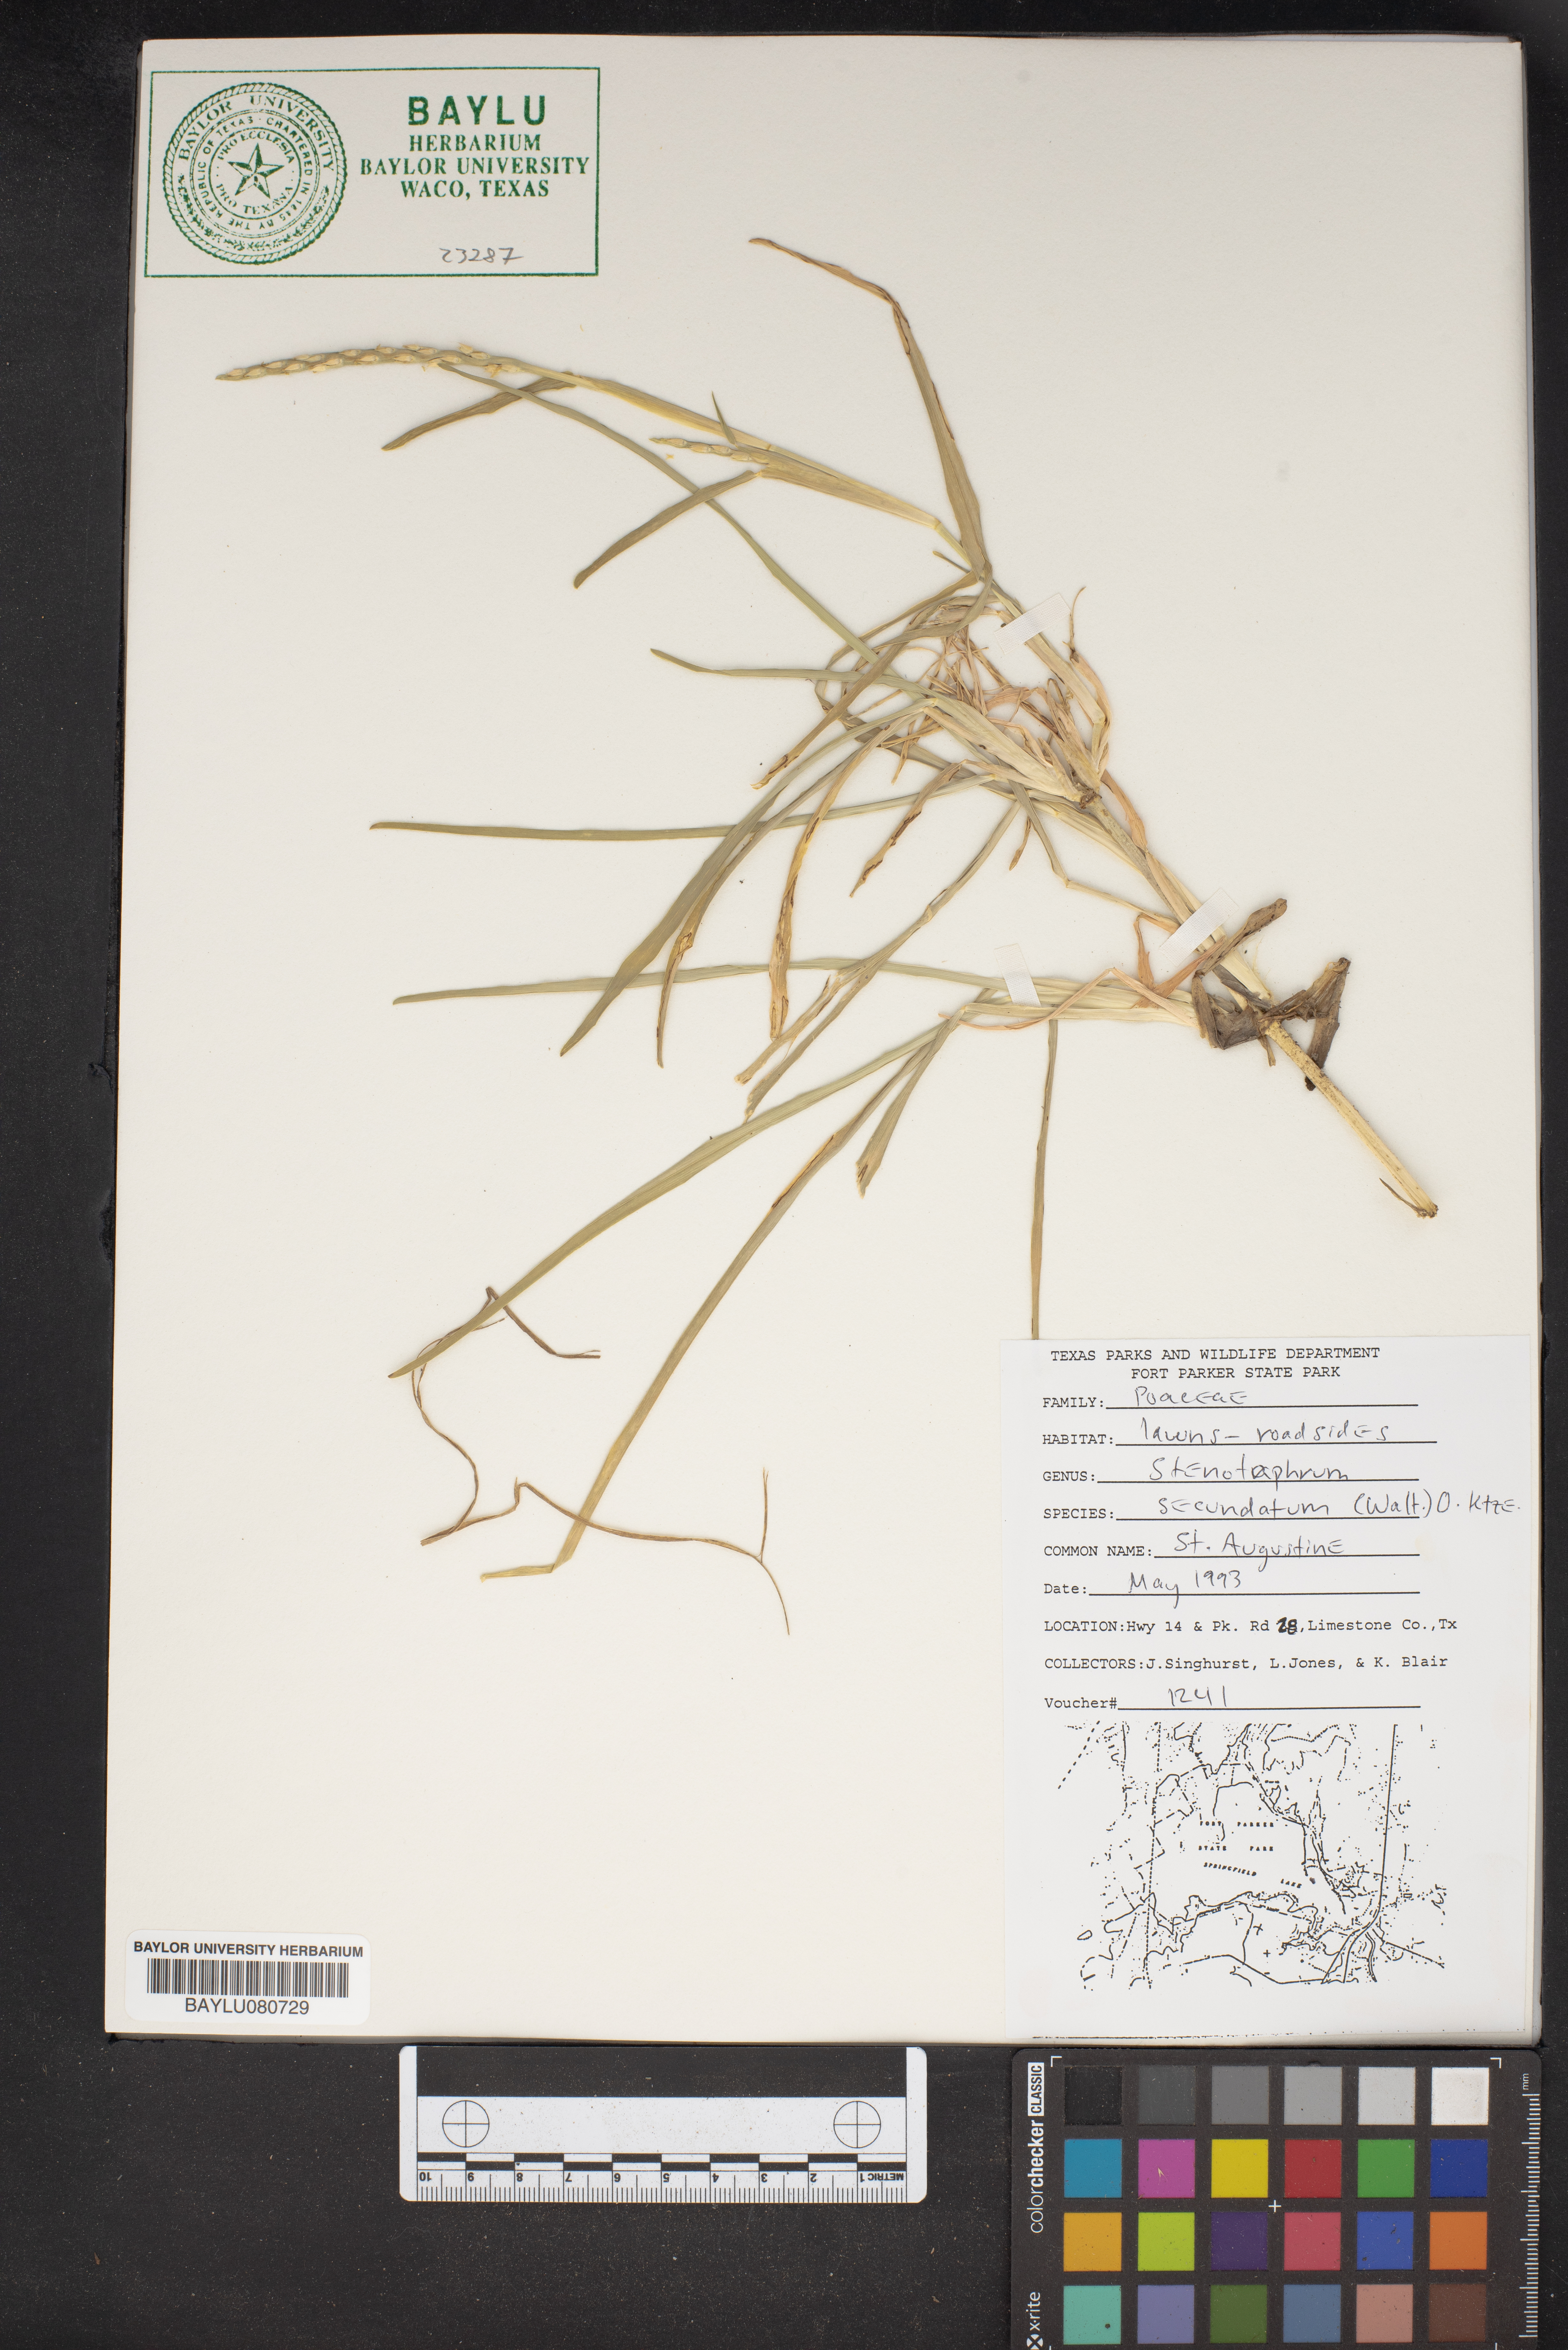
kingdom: Plantae
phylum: Tracheophyta
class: Liliopsida
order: Poales
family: Poaceae
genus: Stenotaphrum
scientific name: Stenotaphrum secundatum
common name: St. augustine grass
